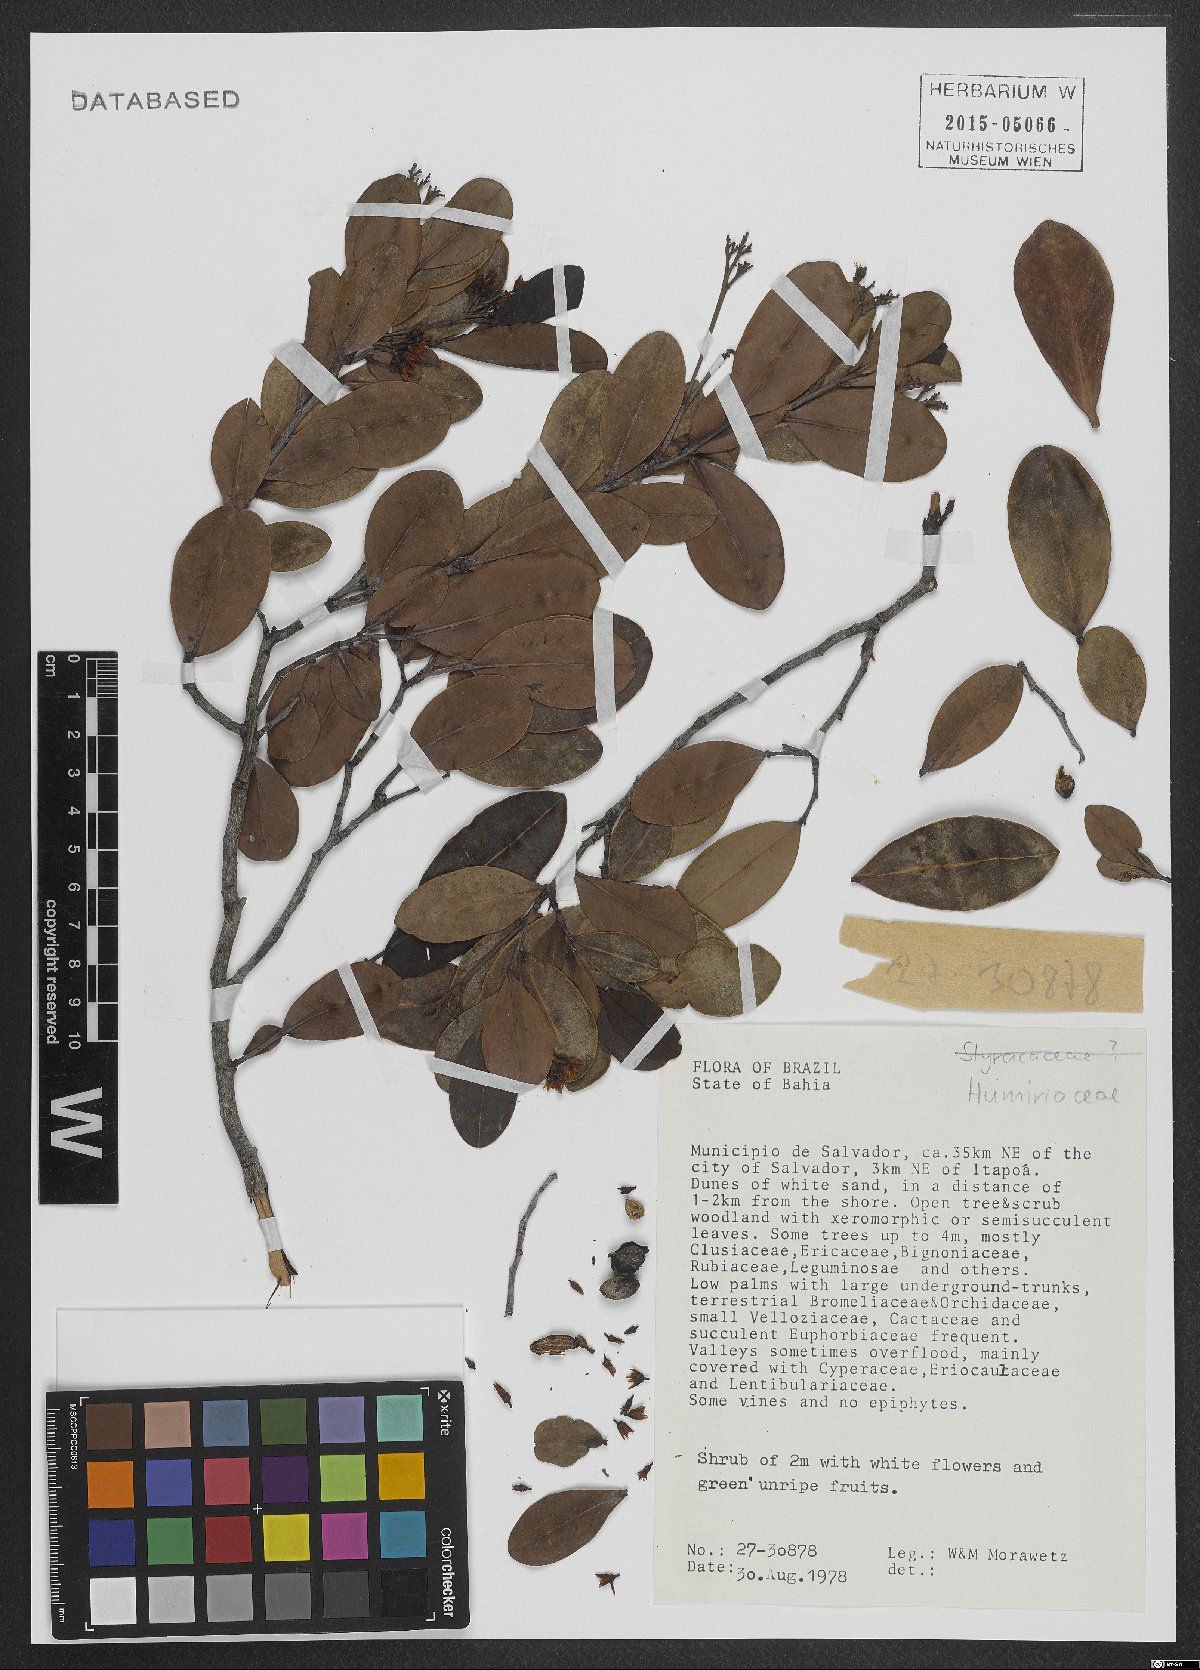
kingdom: Plantae
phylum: Tracheophyta
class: Magnoliopsida
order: Malpighiales
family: Humiriaceae
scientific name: Humiriaceae
